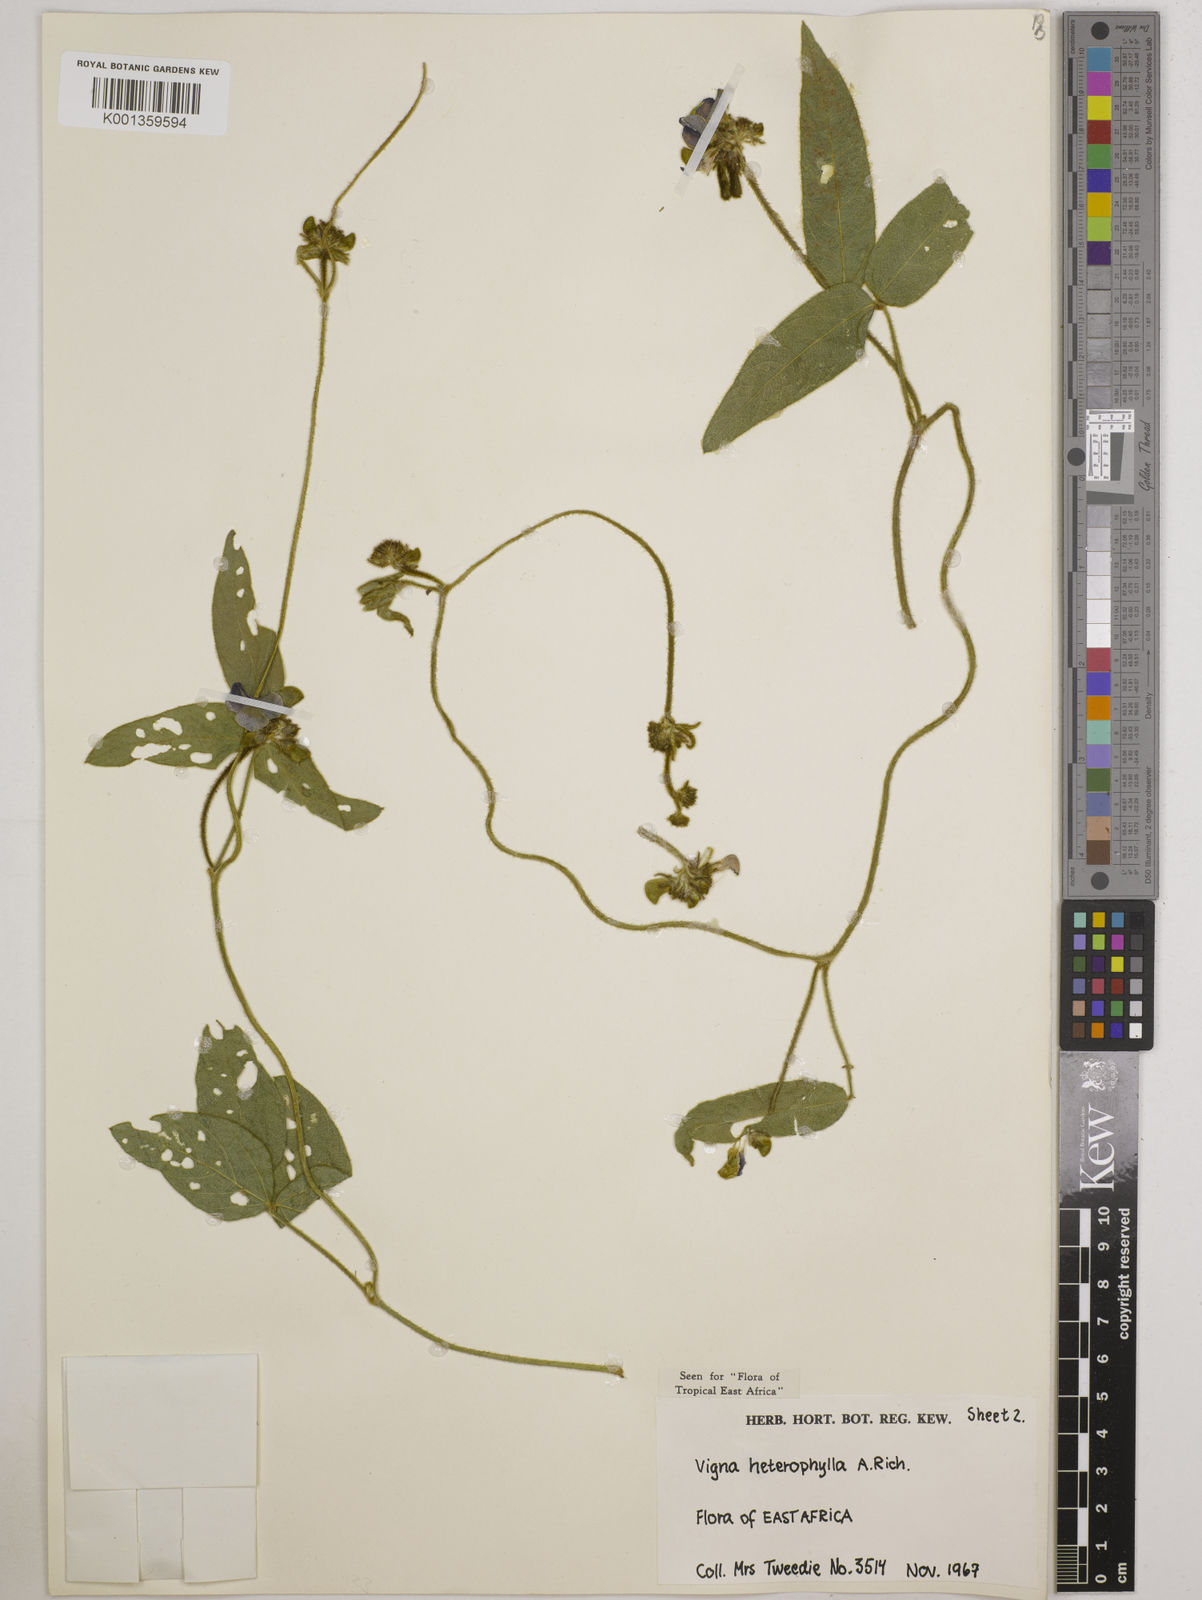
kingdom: Plantae
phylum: Tracheophyta
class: Magnoliopsida
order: Fabales
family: Fabaceae
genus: Vigna
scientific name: Vigna heterophylla
